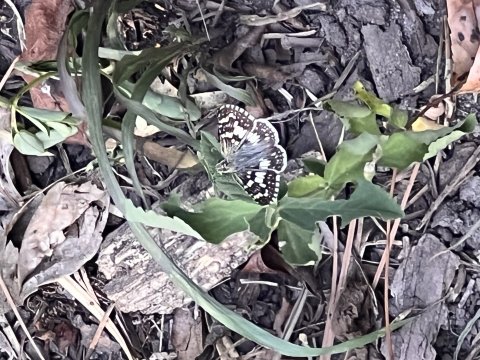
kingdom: Animalia
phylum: Arthropoda
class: Insecta
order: Lepidoptera
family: Hesperiidae
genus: Pyrgus
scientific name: Pyrgus oileus
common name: Tropical Checkered-Skipper
